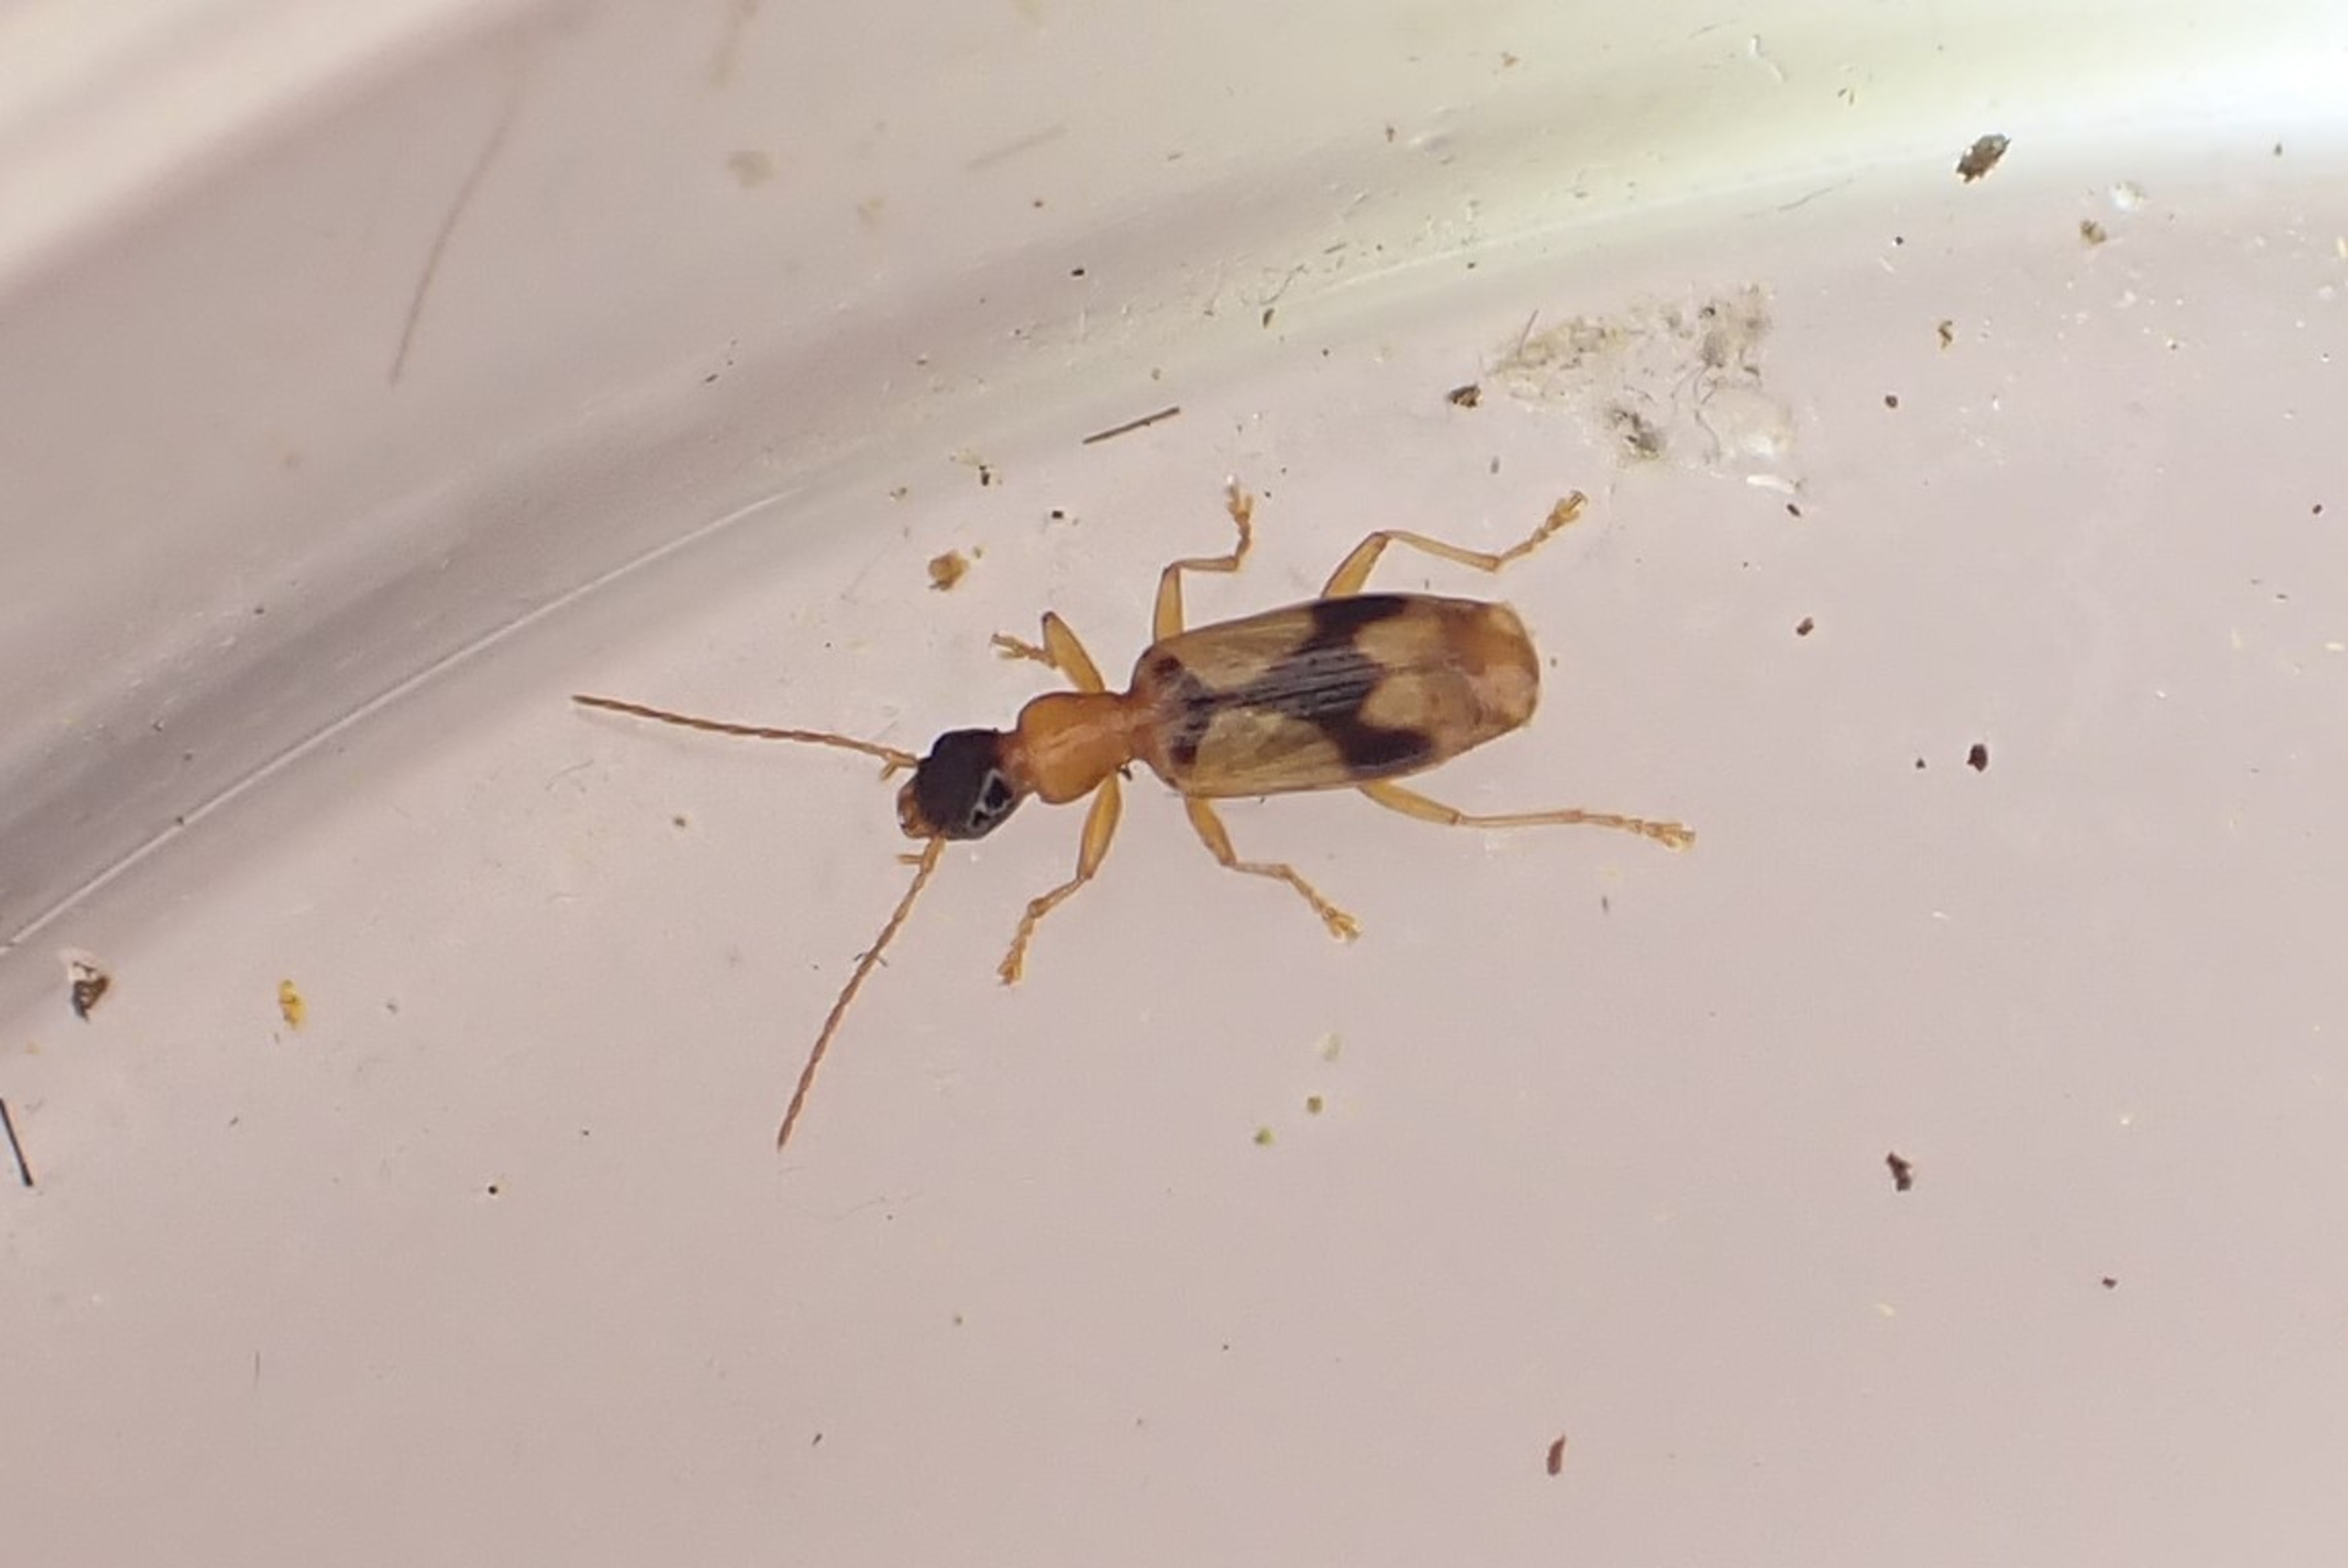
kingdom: Animalia
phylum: Arthropoda
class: Insecta
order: Coleoptera
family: Carabidae
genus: Demetrias
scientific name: Demetrias imperialis
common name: Smuk smalløber
